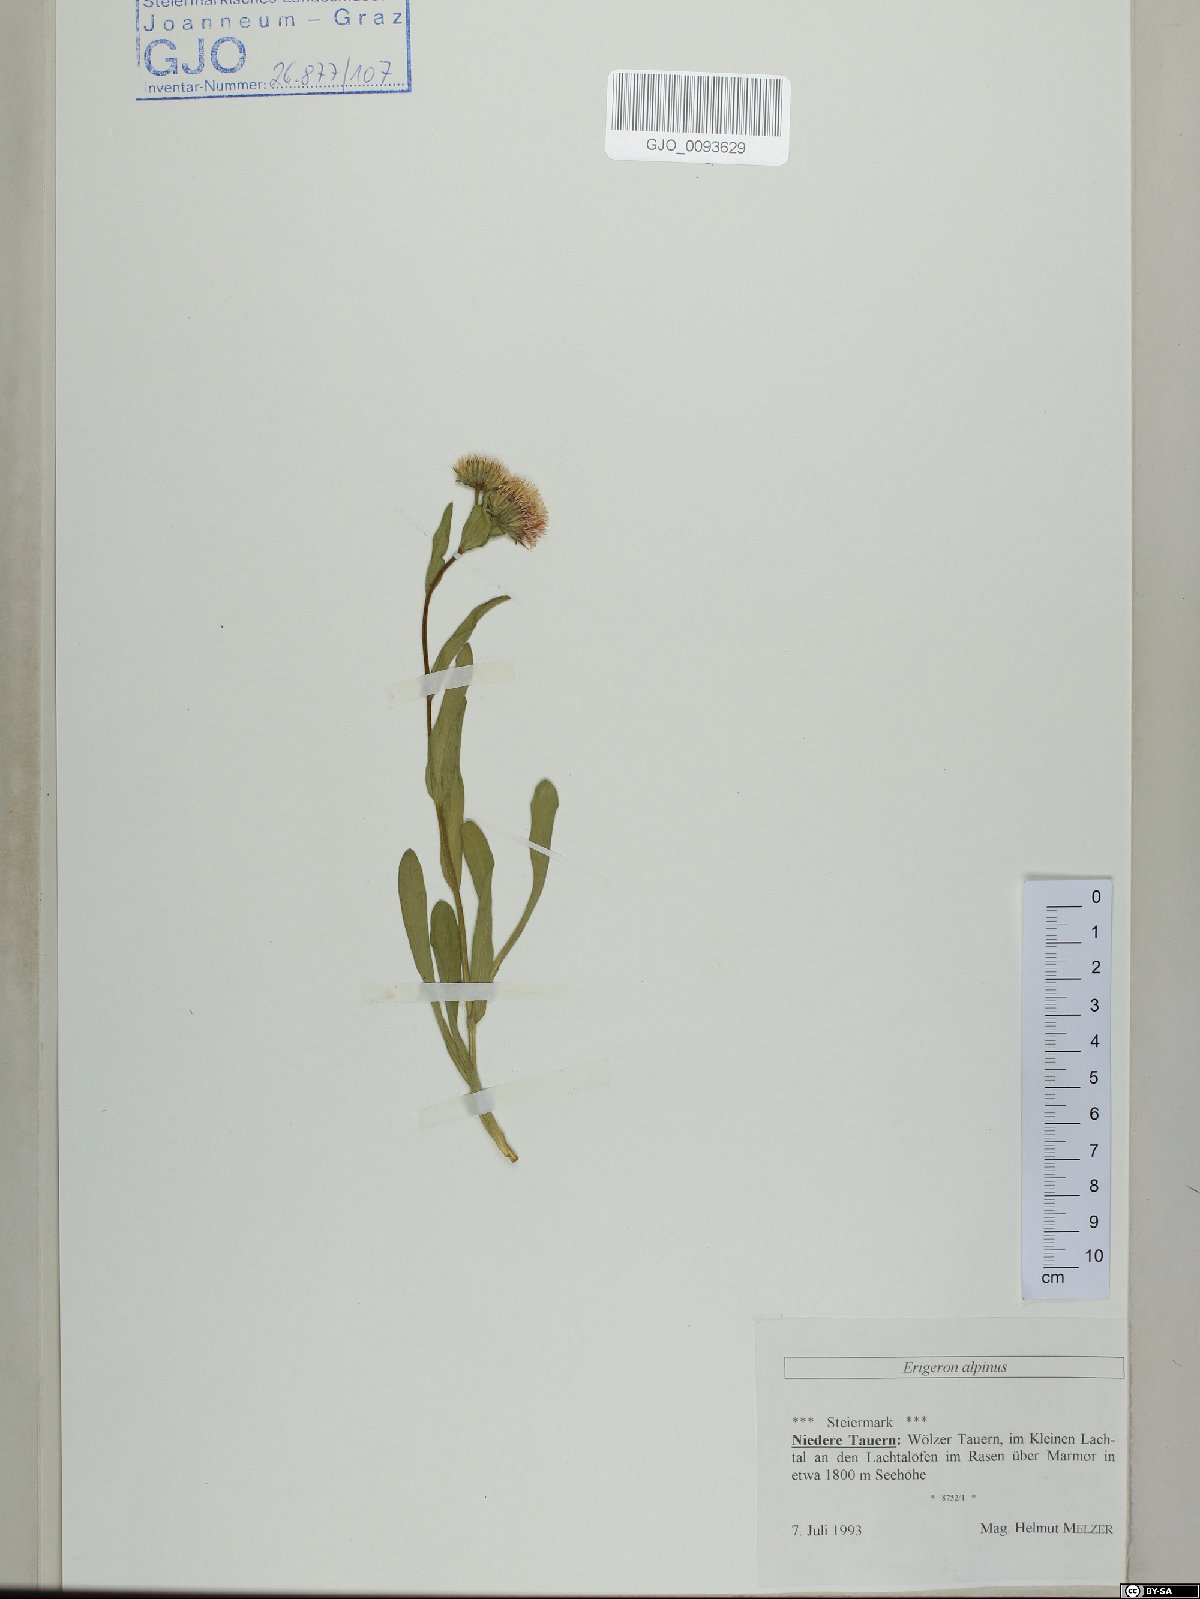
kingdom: Plantae
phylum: Tracheophyta
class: Magnoliopsida
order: Asterales
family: Asteraceae
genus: Erigeron
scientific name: Erigeron alpinus
